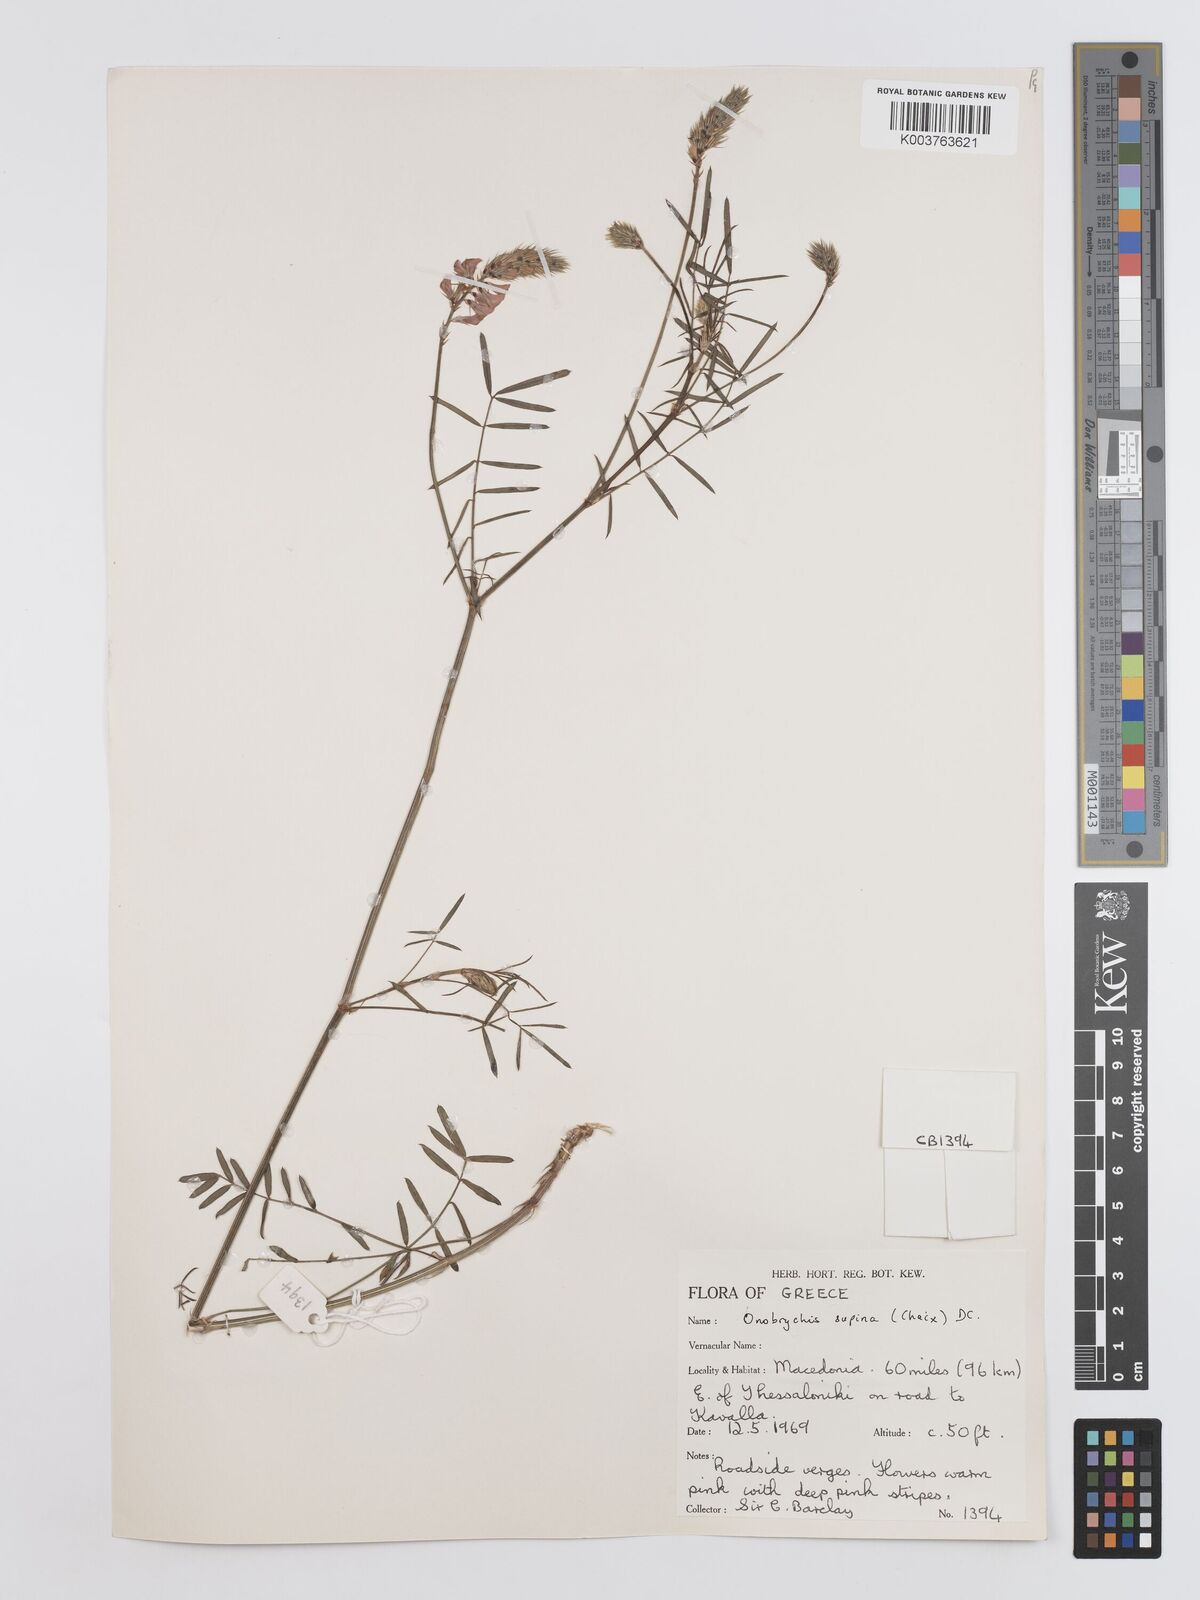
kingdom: Plantae
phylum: Tracheophyta
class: Magnoliopsida
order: Fabales
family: Fabaceae
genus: Onobrychis
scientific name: Onobrychis supina
